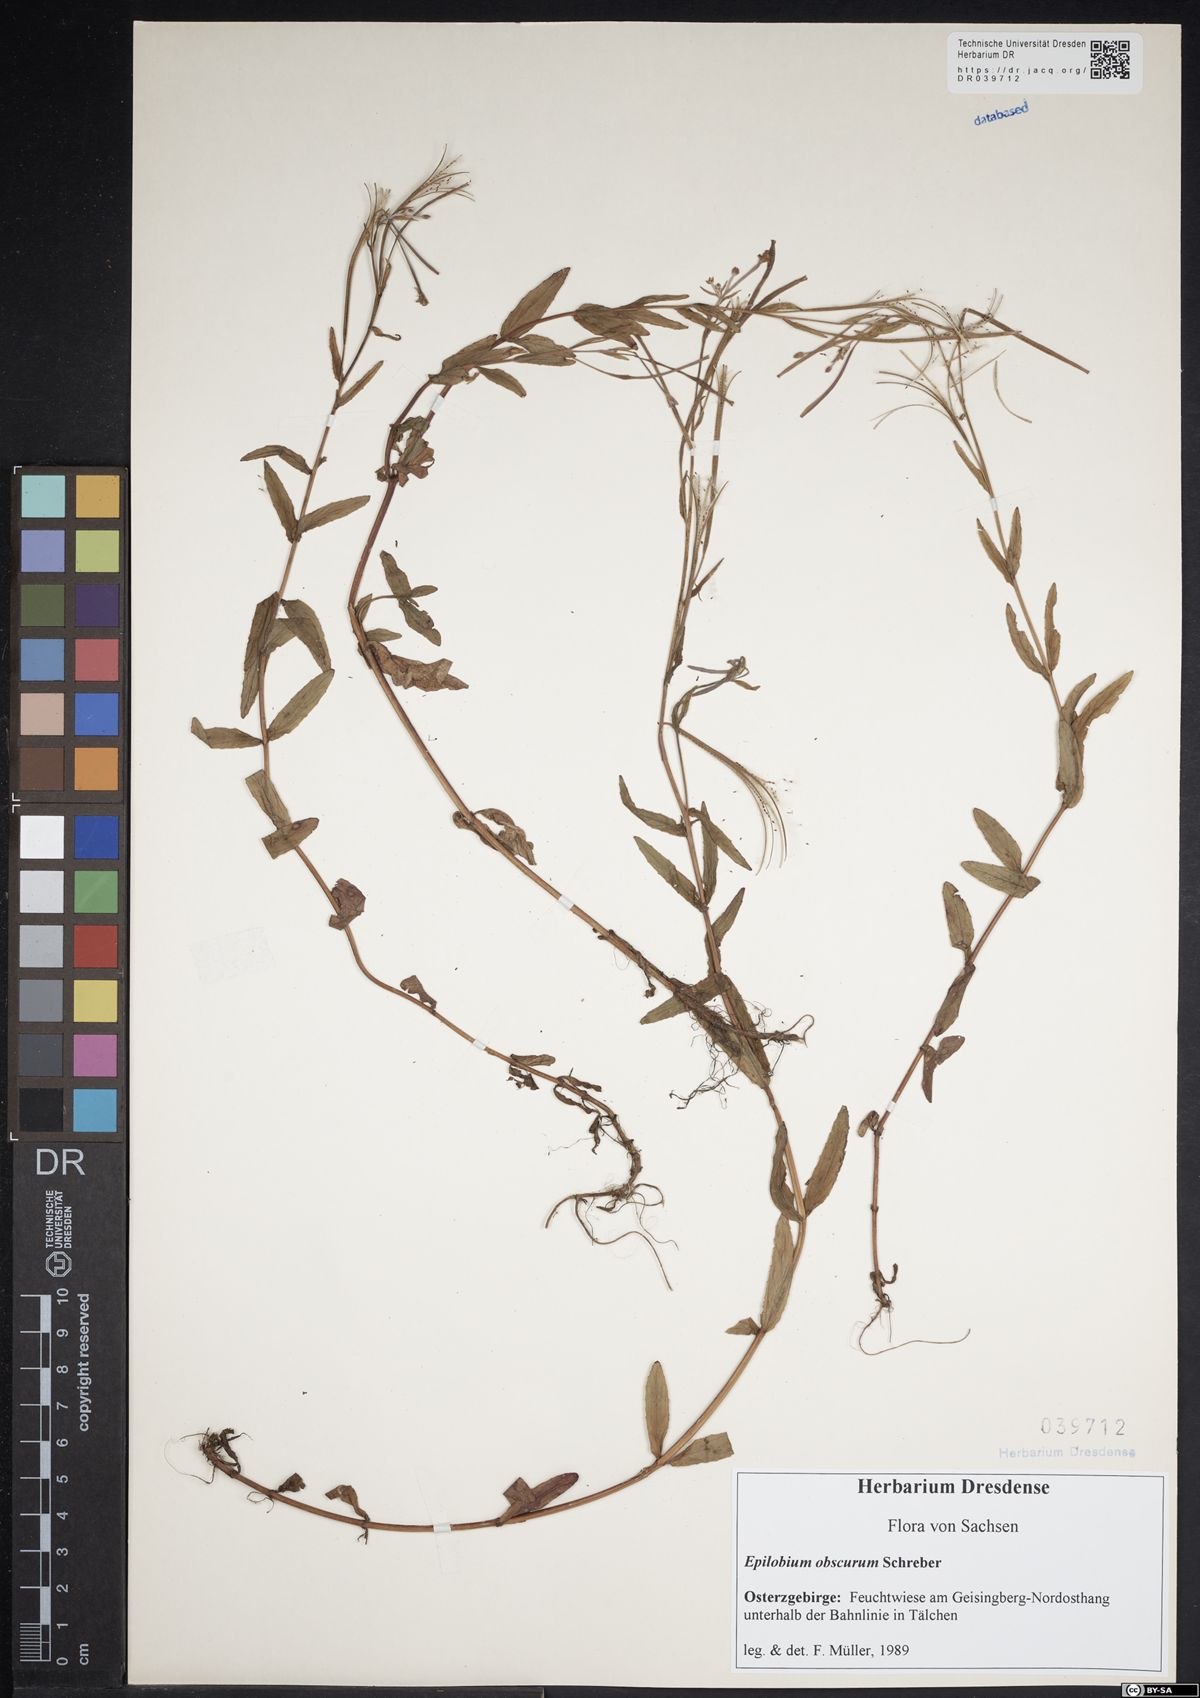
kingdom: Plantae
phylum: Tracheophyta
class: Magnoliopsida
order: Myrtales
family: Onagraceae
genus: Epilobium
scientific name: Epilobium obscurum
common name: Short-fruited willowherb
